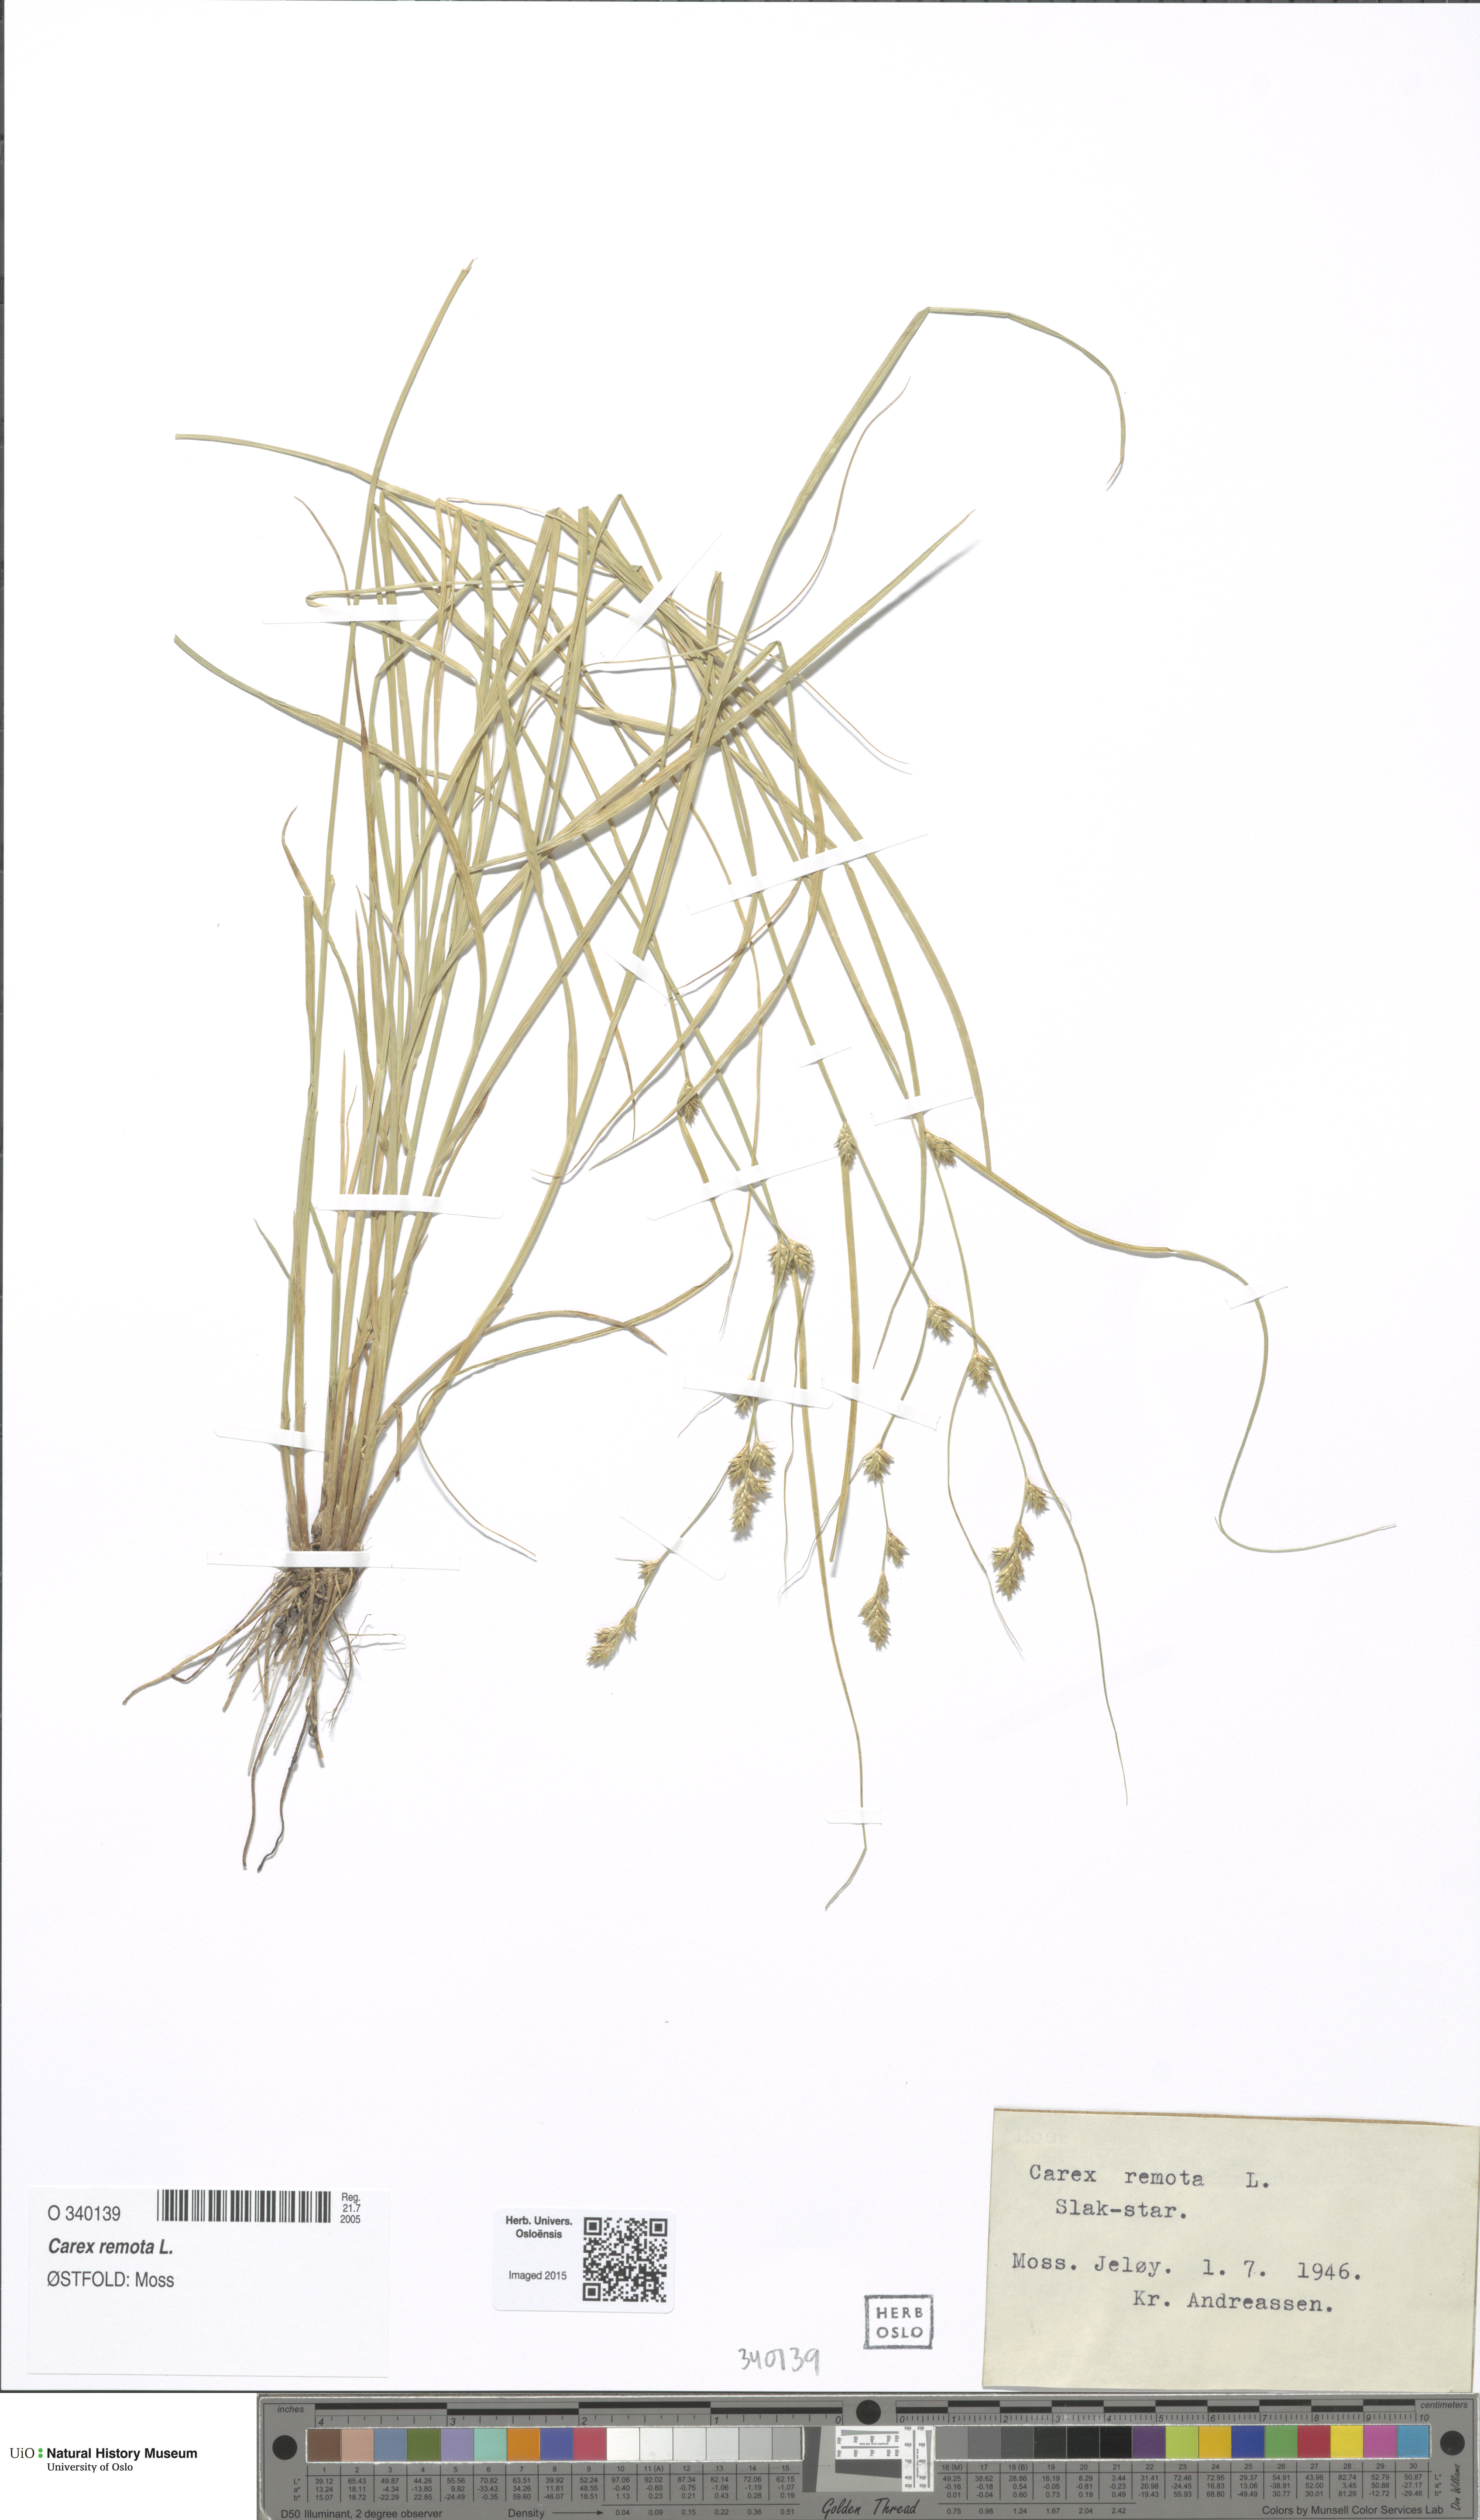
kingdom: Plantae
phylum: Tracheophyta
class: Liliopsida
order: Poales
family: Cyperaceae
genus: Carex
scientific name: Carex remota
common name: Remote sedge
